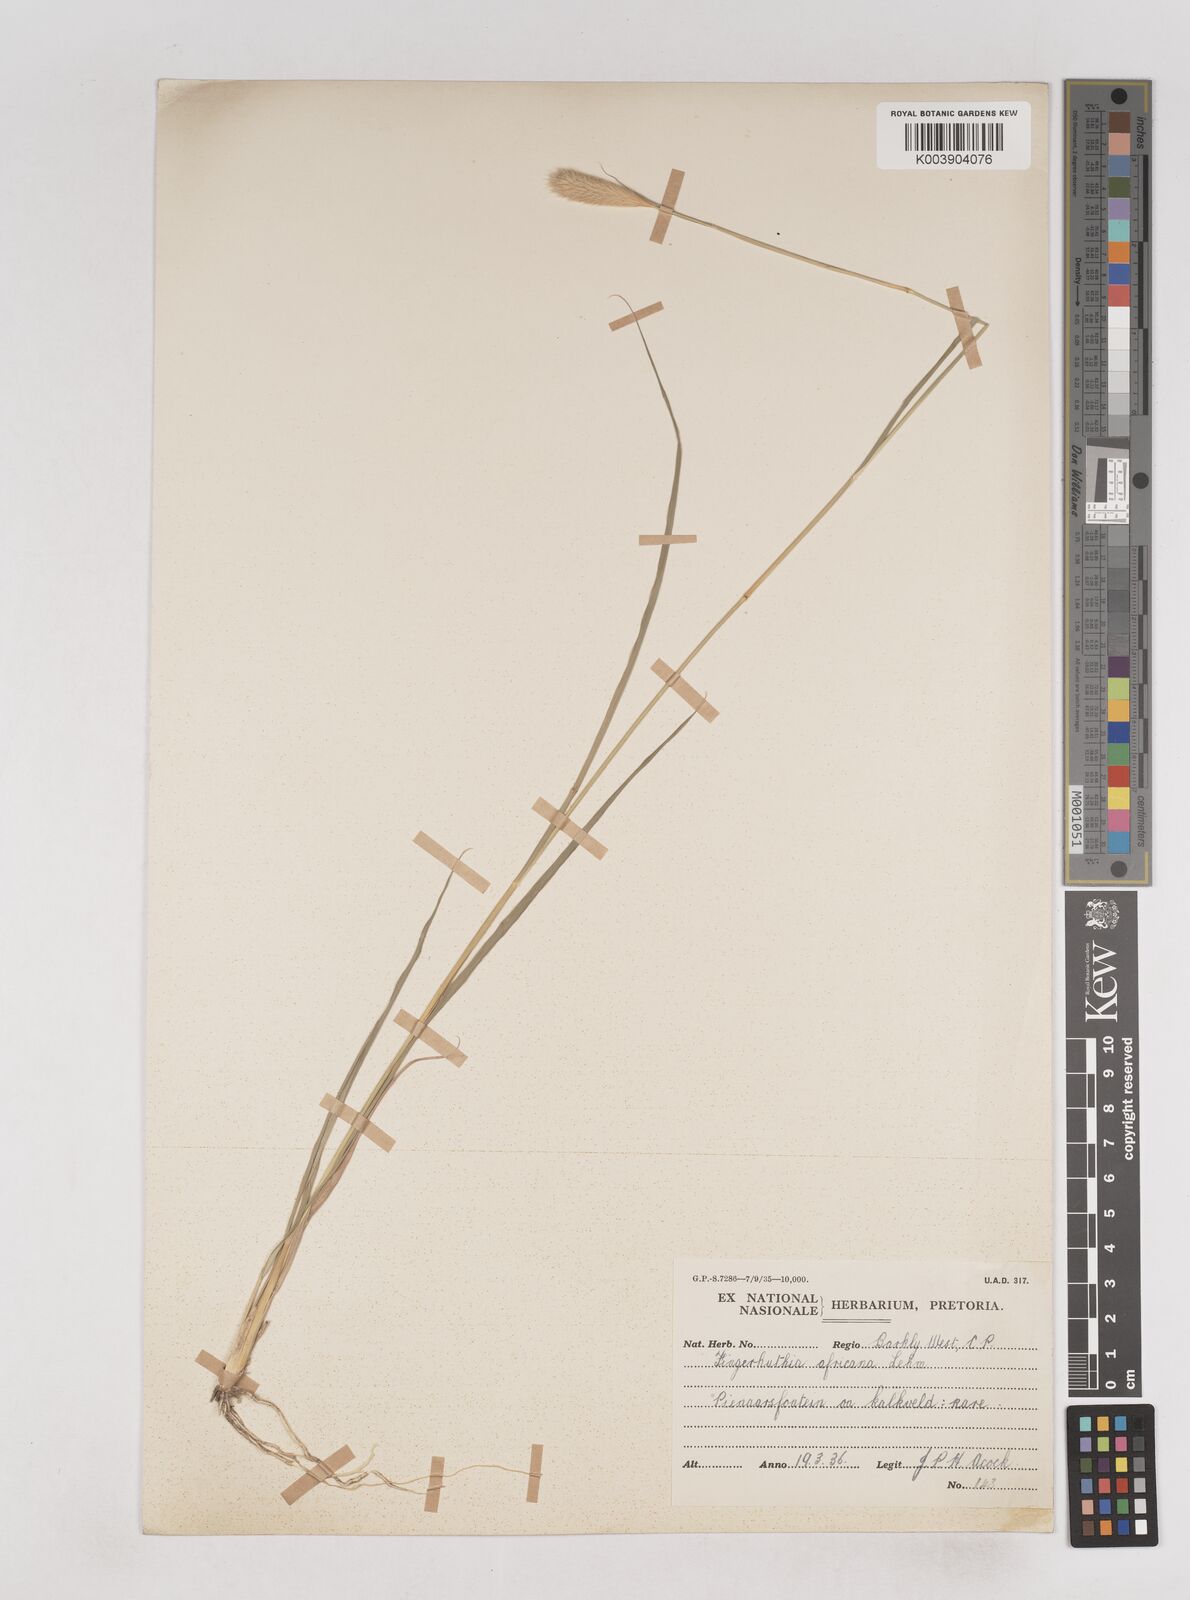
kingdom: Plantae
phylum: Tracheophyta
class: Liliopsida
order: Poales
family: Poaceae
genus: Fingerhuthia
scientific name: Fingerhuthia africana
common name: Zulu fescue
